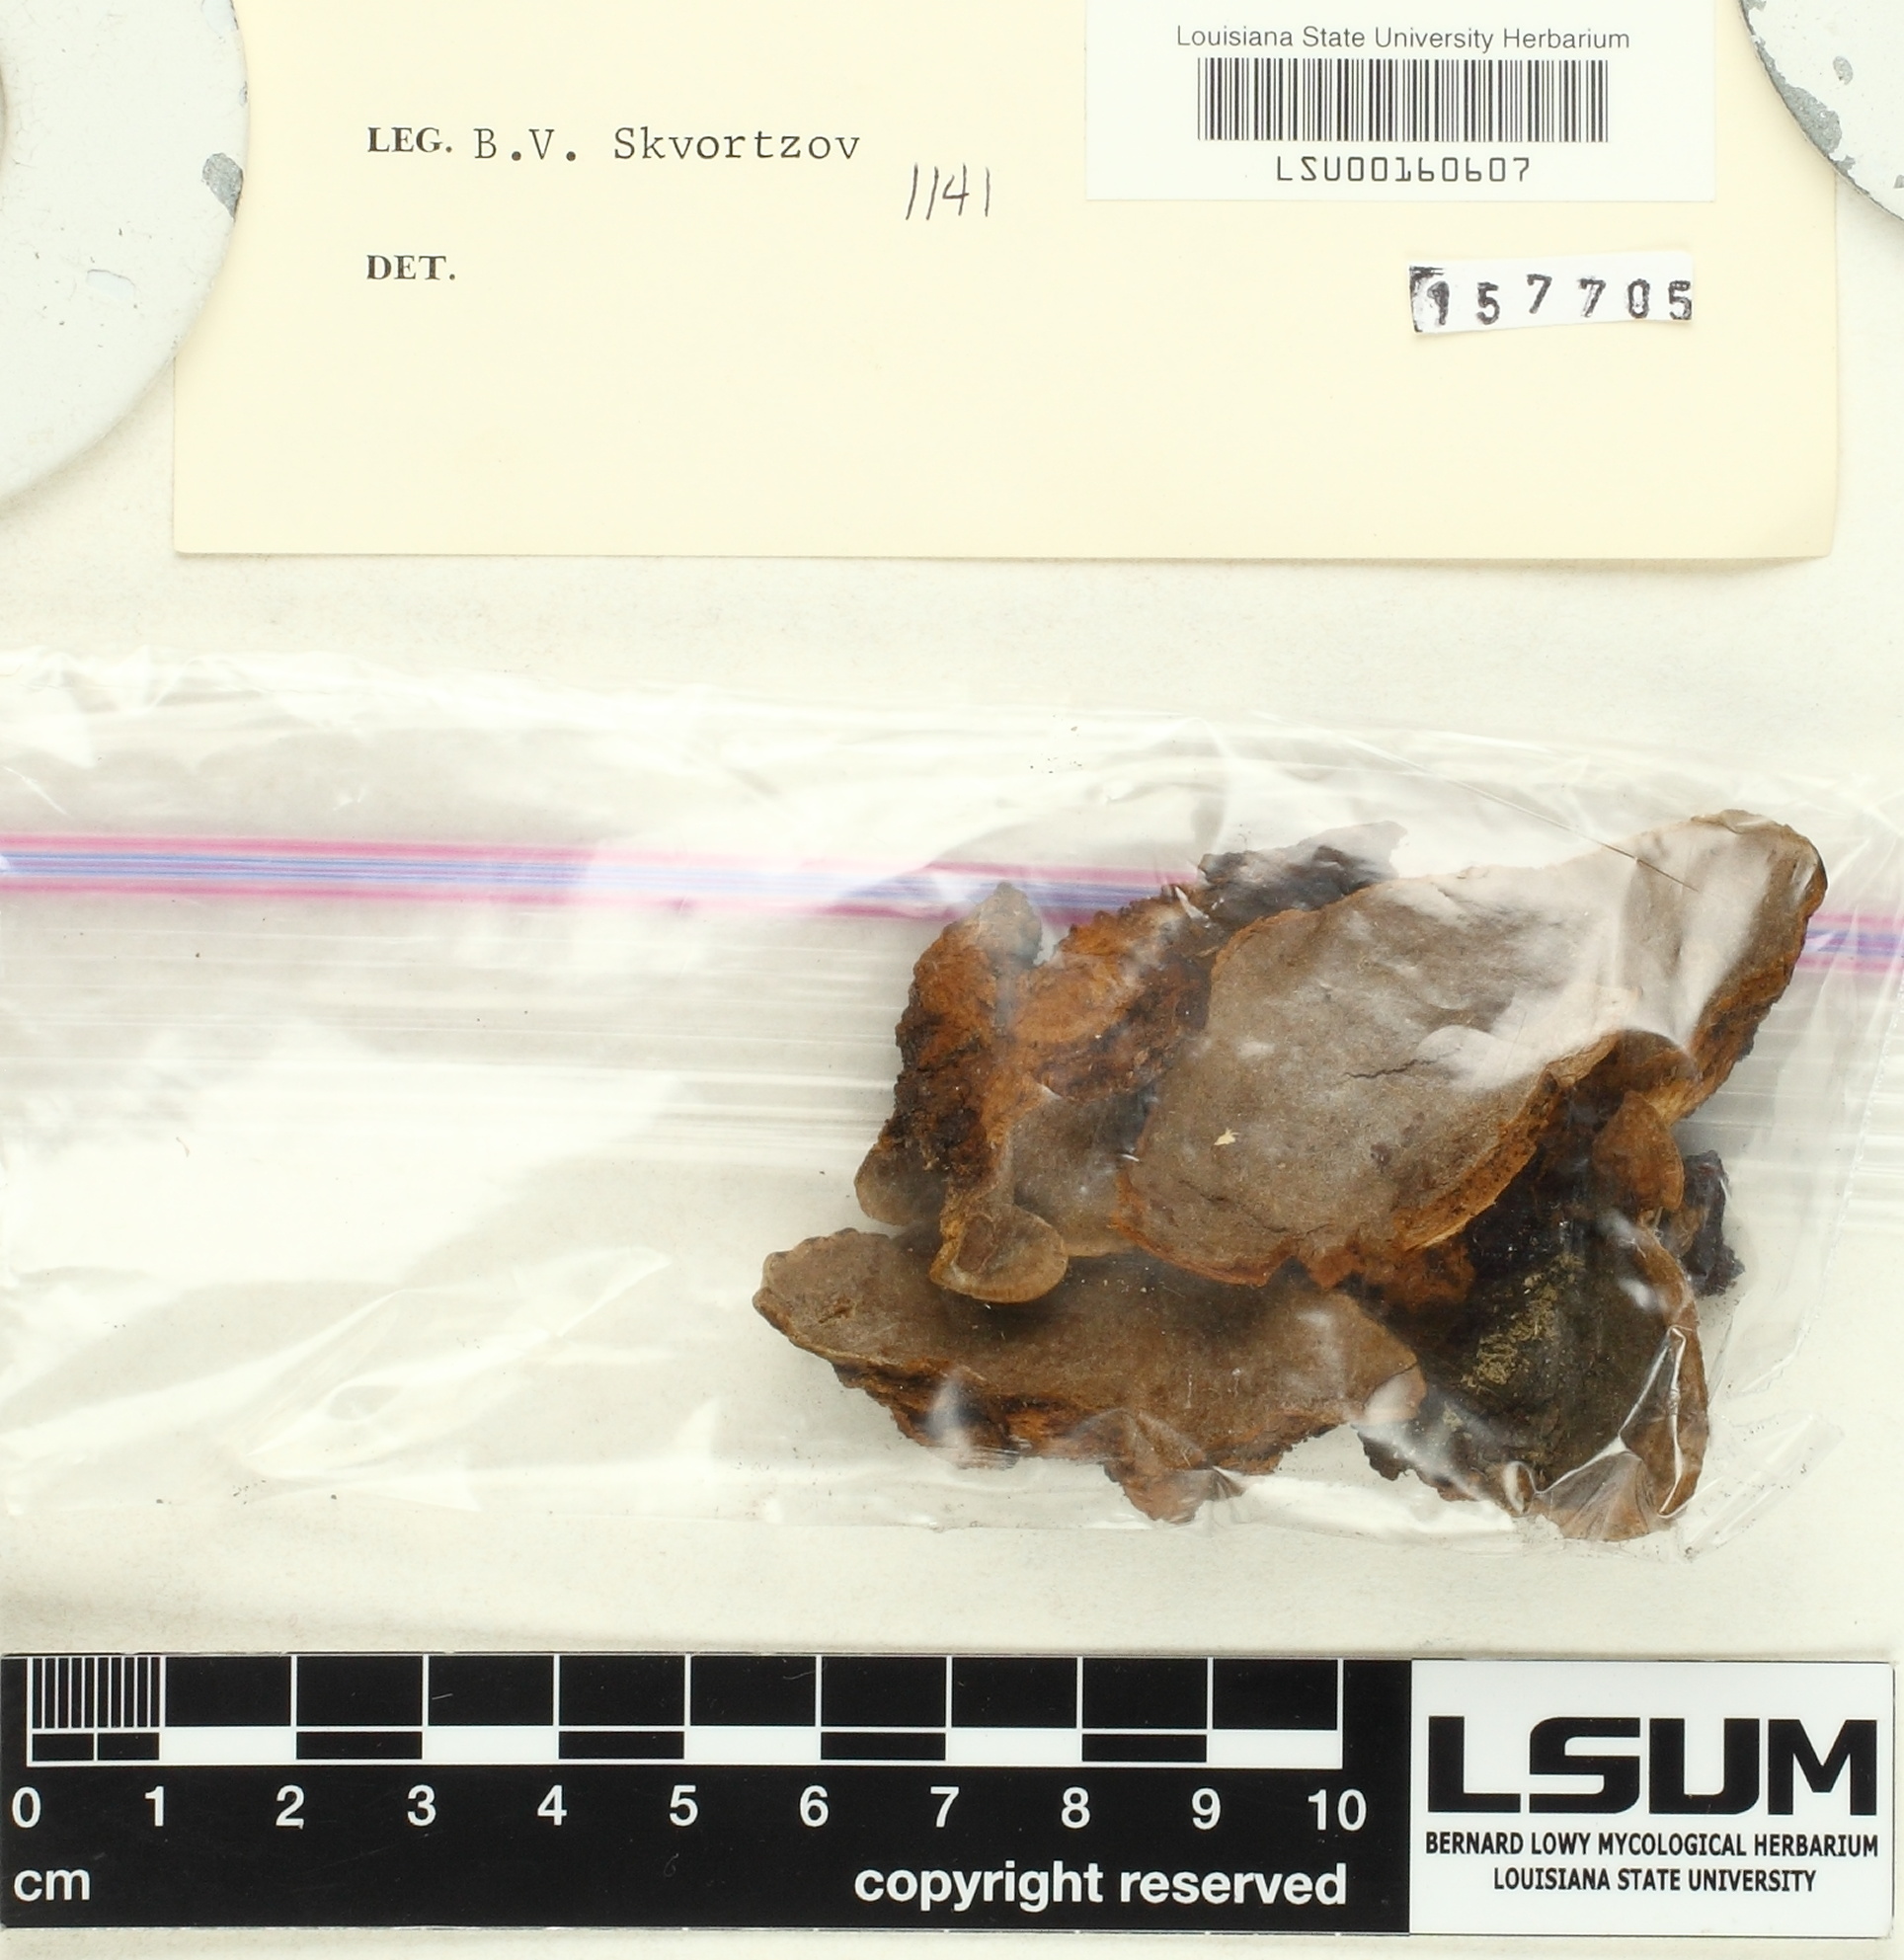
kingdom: Fungi
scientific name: Fungi
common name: Fungi
